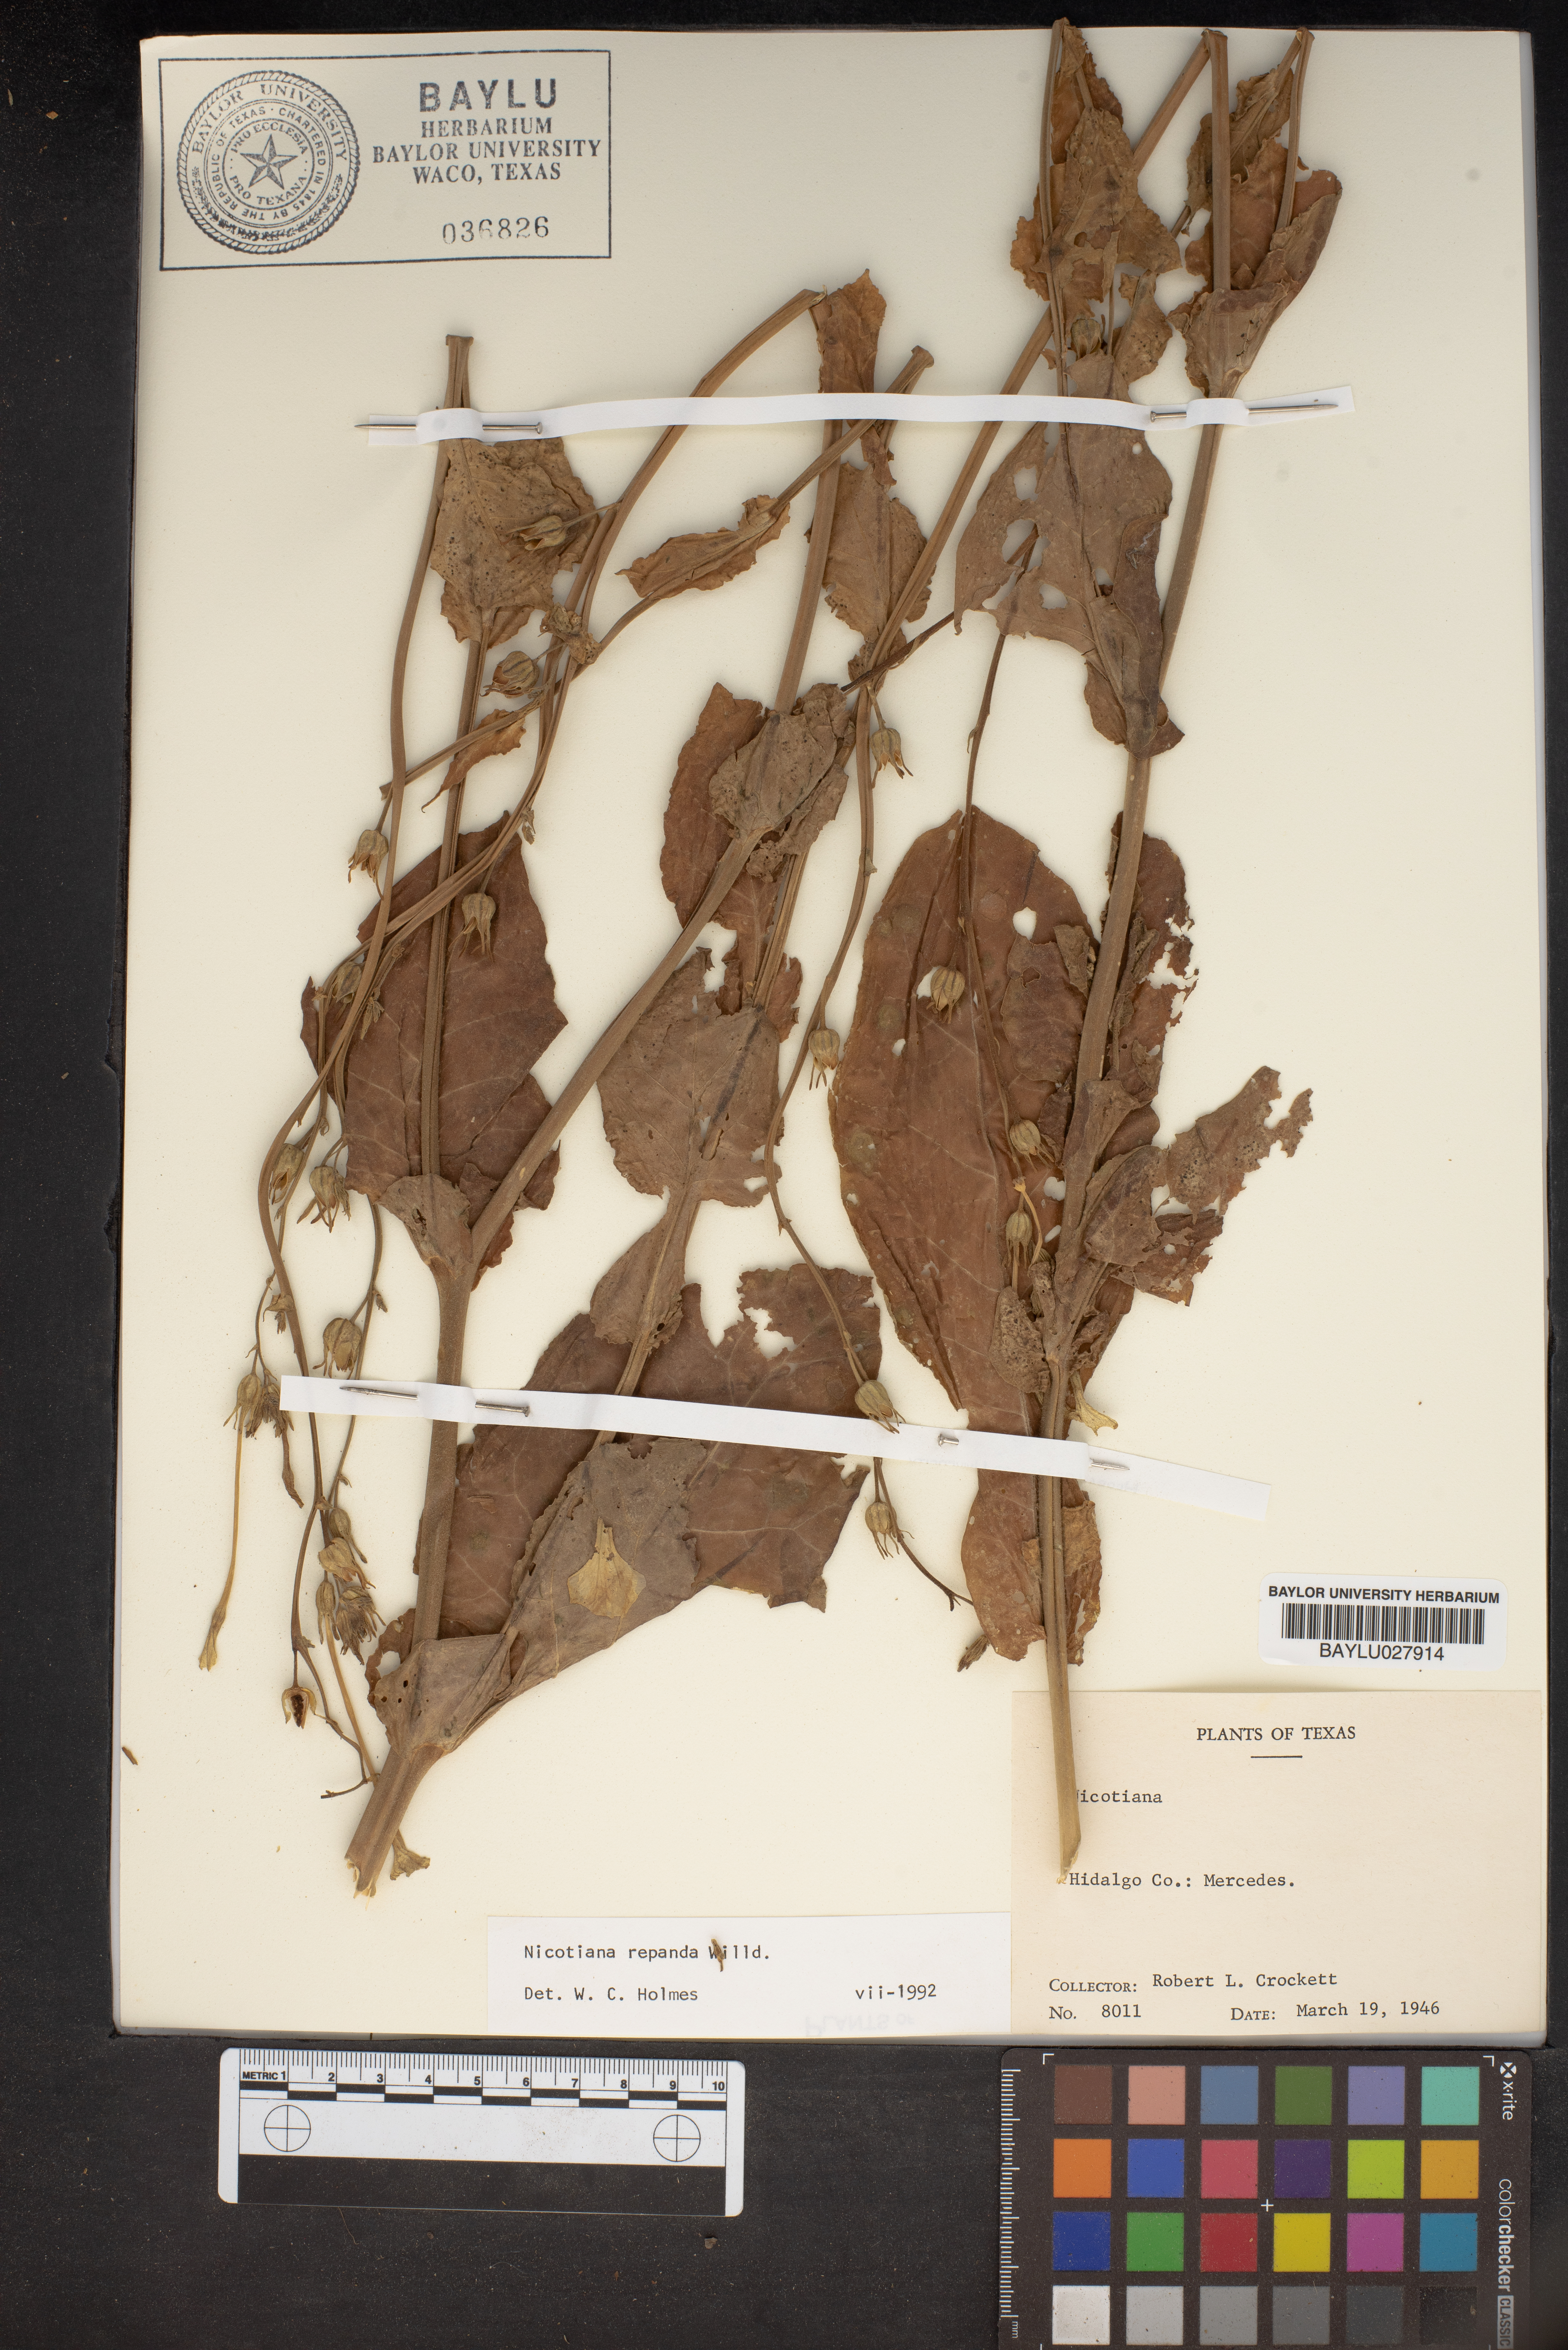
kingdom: Plantae
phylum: Tracheophyta
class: Magnoliopsida
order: Solanales
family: Solanaceae
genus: Nicotiana
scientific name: Nicotiana repanda
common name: Fiddle-leaf tobacco
